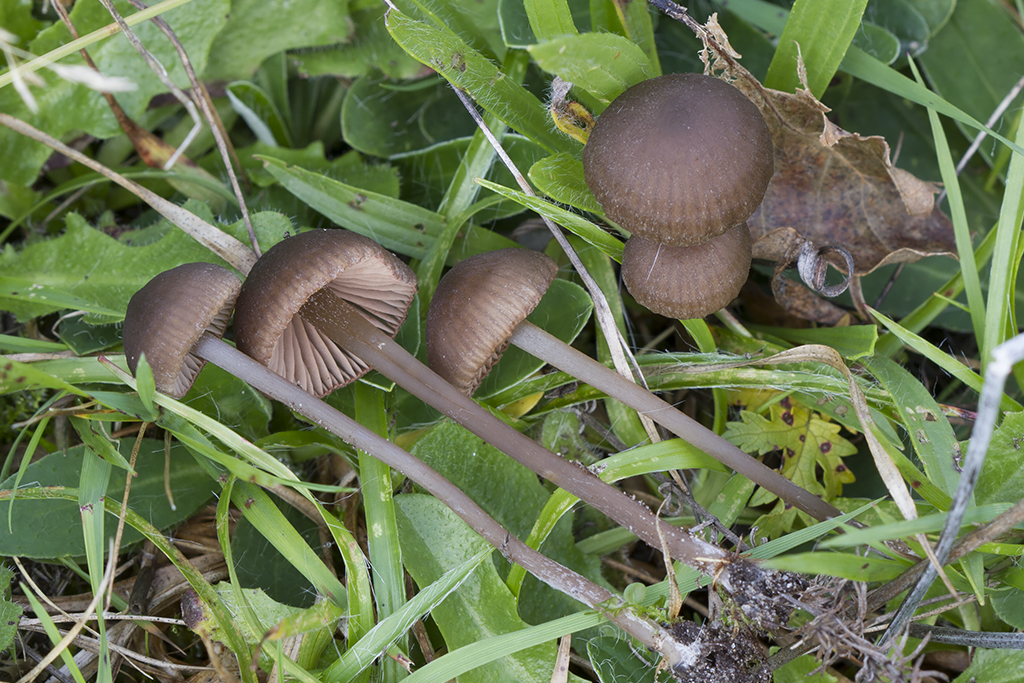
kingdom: Fungi
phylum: Basidiomycota
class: Agaricomycetes
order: Agaricales
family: Entolomataceae
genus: Entoloma
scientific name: Entoloma clandestinum
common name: tykbladet rødblad
